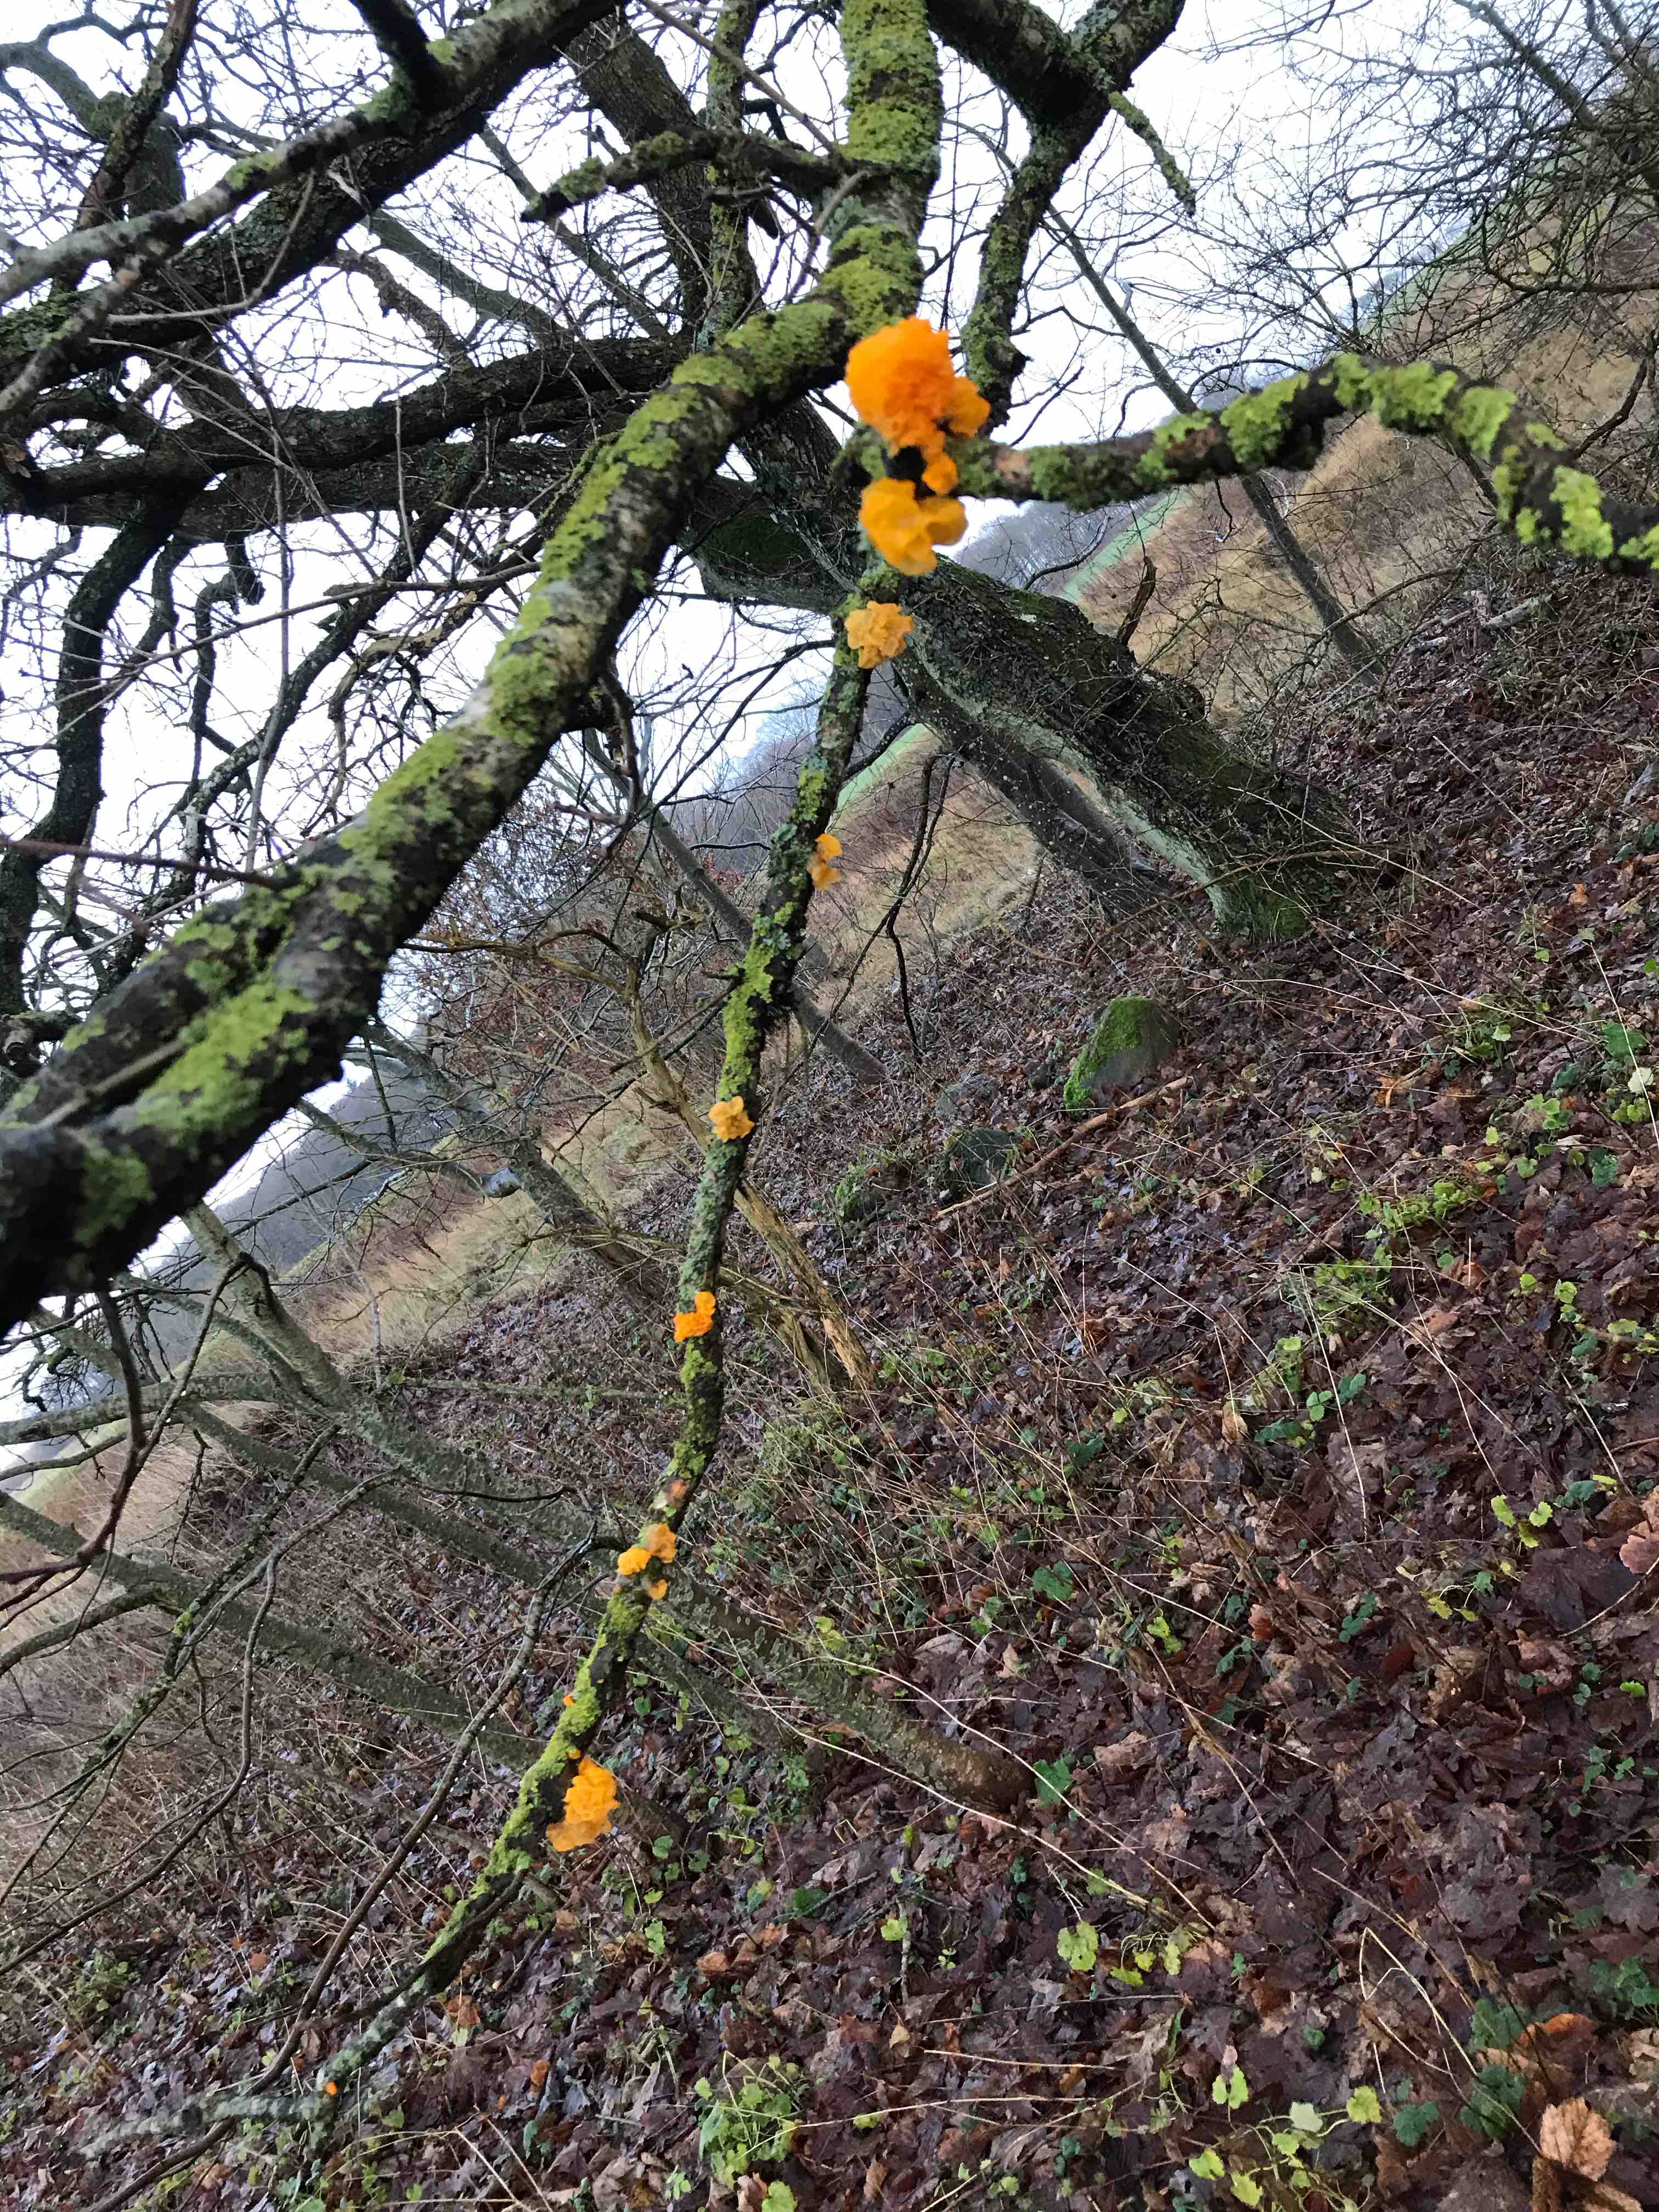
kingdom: Fungi
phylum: Basidiomycota
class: Tremellomycetes
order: Tremellales
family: Tremellaceae
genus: Tremella
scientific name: Tremella mesenterica
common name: gul bævresvamp
